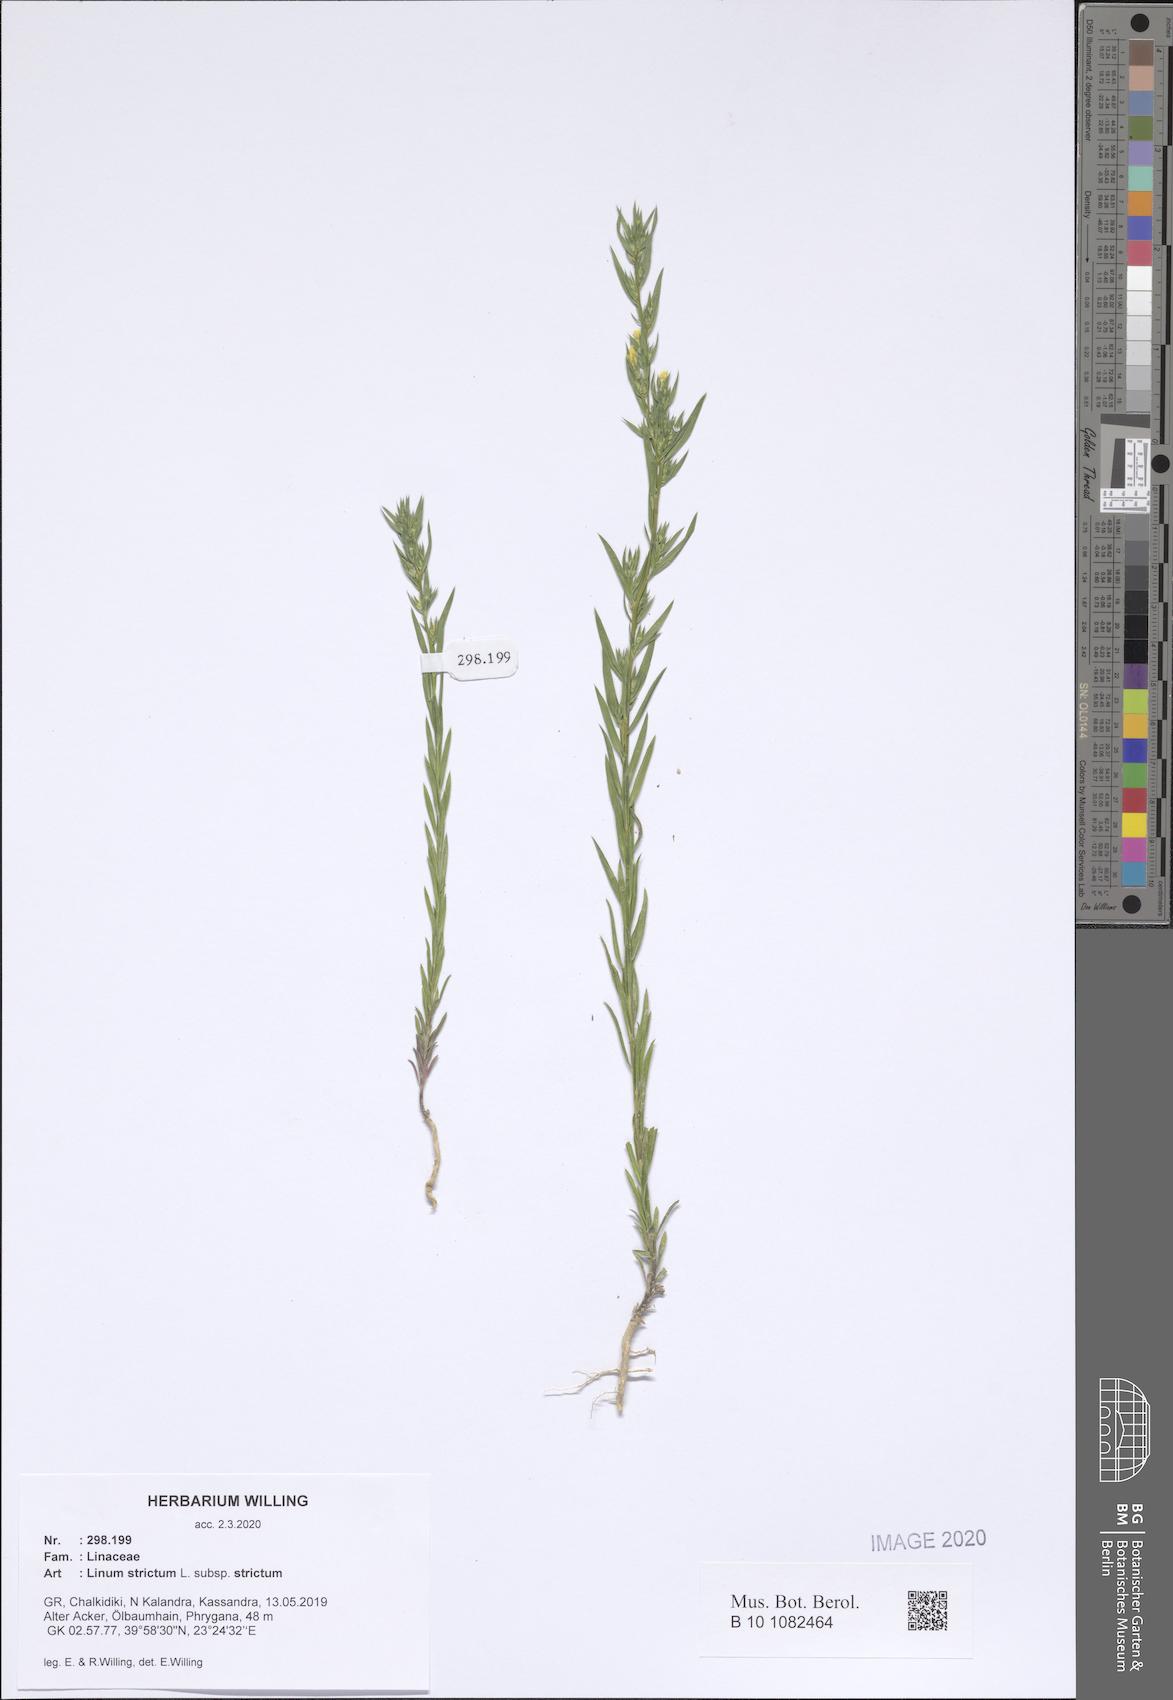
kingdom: Plantae
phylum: Tracheophyta
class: Magnoliopsida
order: Malpighiales
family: Linaceae
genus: Linum
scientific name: Linum strictum
